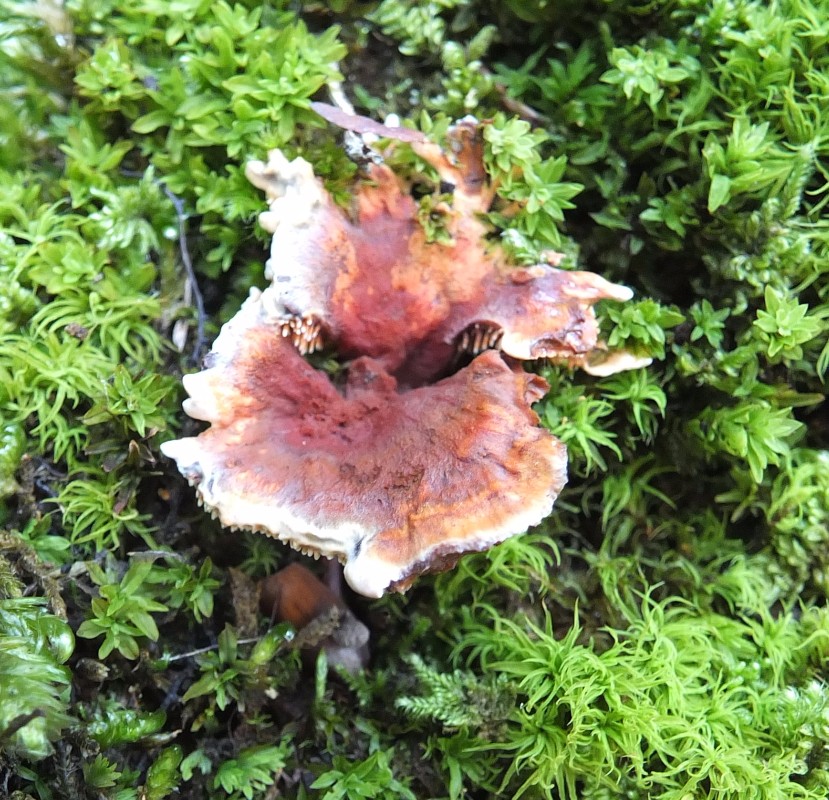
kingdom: Fungi
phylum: Basidiomycota
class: Agaricomycetes
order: Thelephorales
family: Bankeraceae
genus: Hydnellum
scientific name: Hydnellum auratile
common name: teglrød korkpigsvamp
